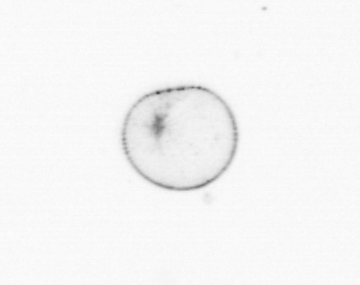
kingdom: Chromista
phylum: Myzozoa
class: Dinophyceae
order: Noctilucales
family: Noctilucaceae
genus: Noctiluca
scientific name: Noctiluca scintillans
